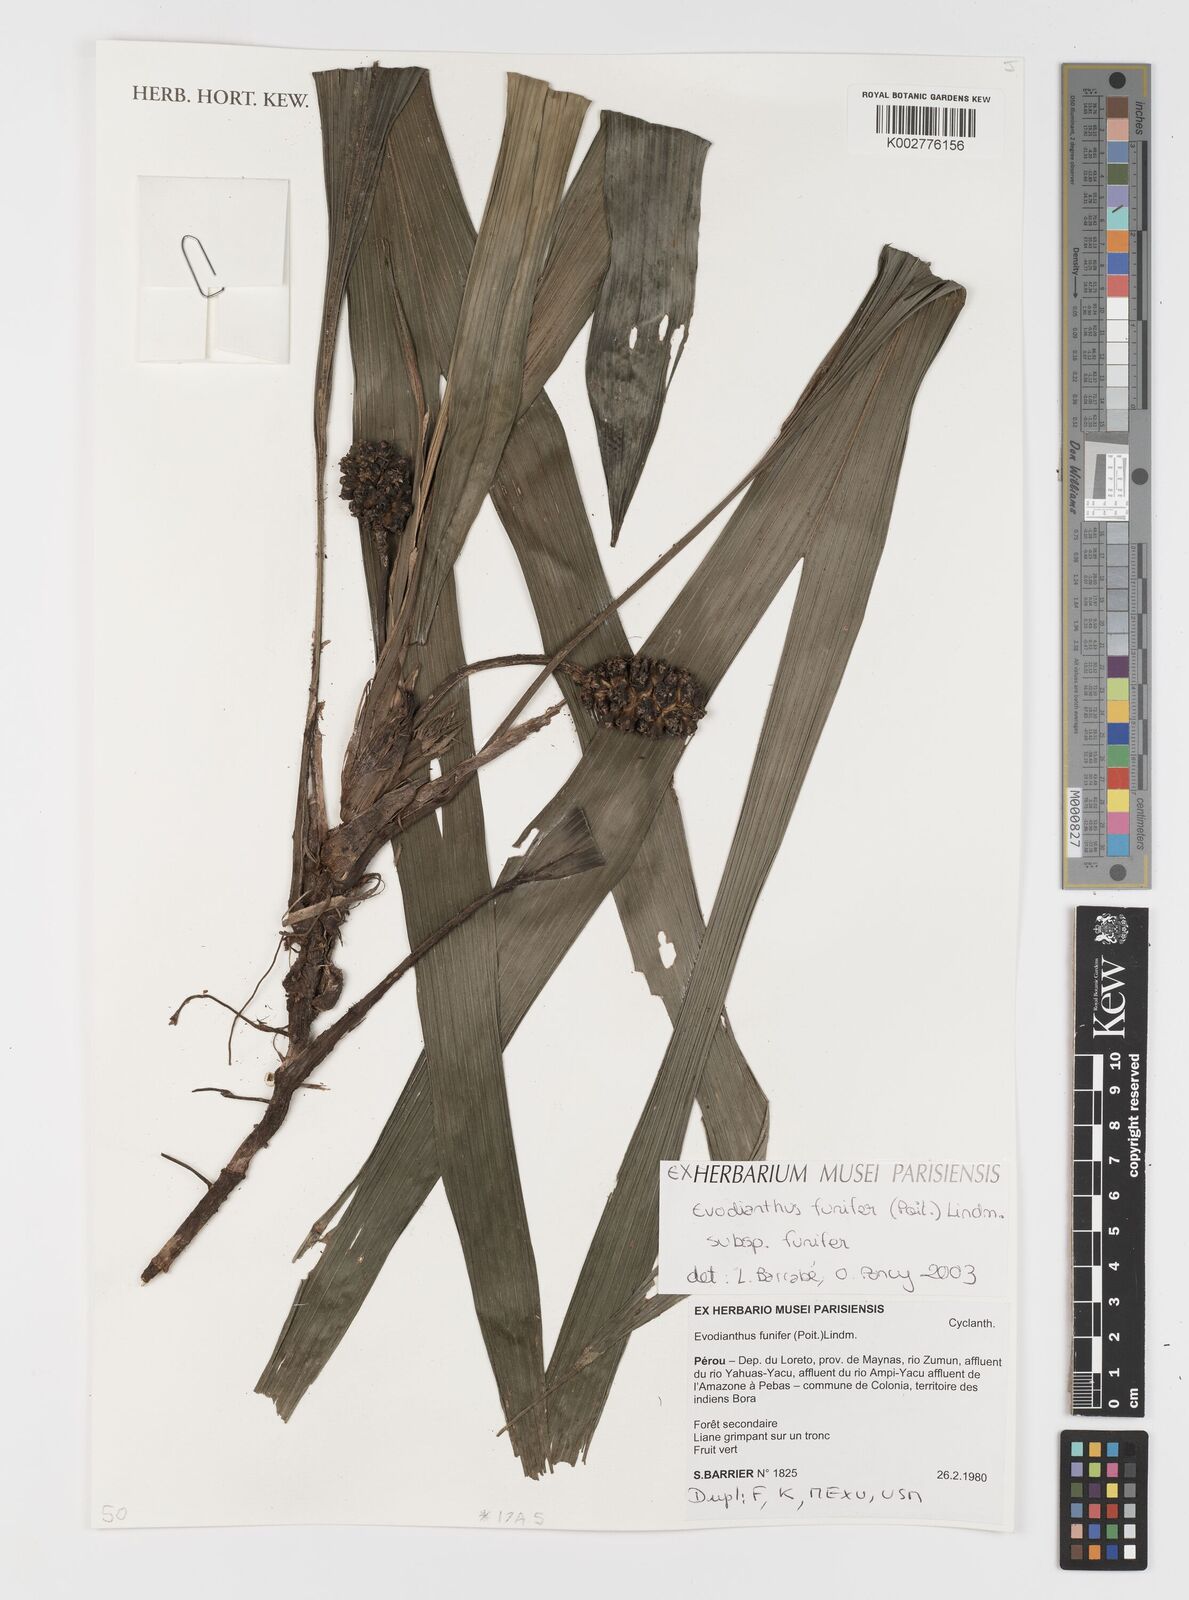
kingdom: Plantae
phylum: Tracheophyta
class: Liliopsida
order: Pandanales
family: Cyclanthaceae
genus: Evodianthus
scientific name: Evodianthus funifer
